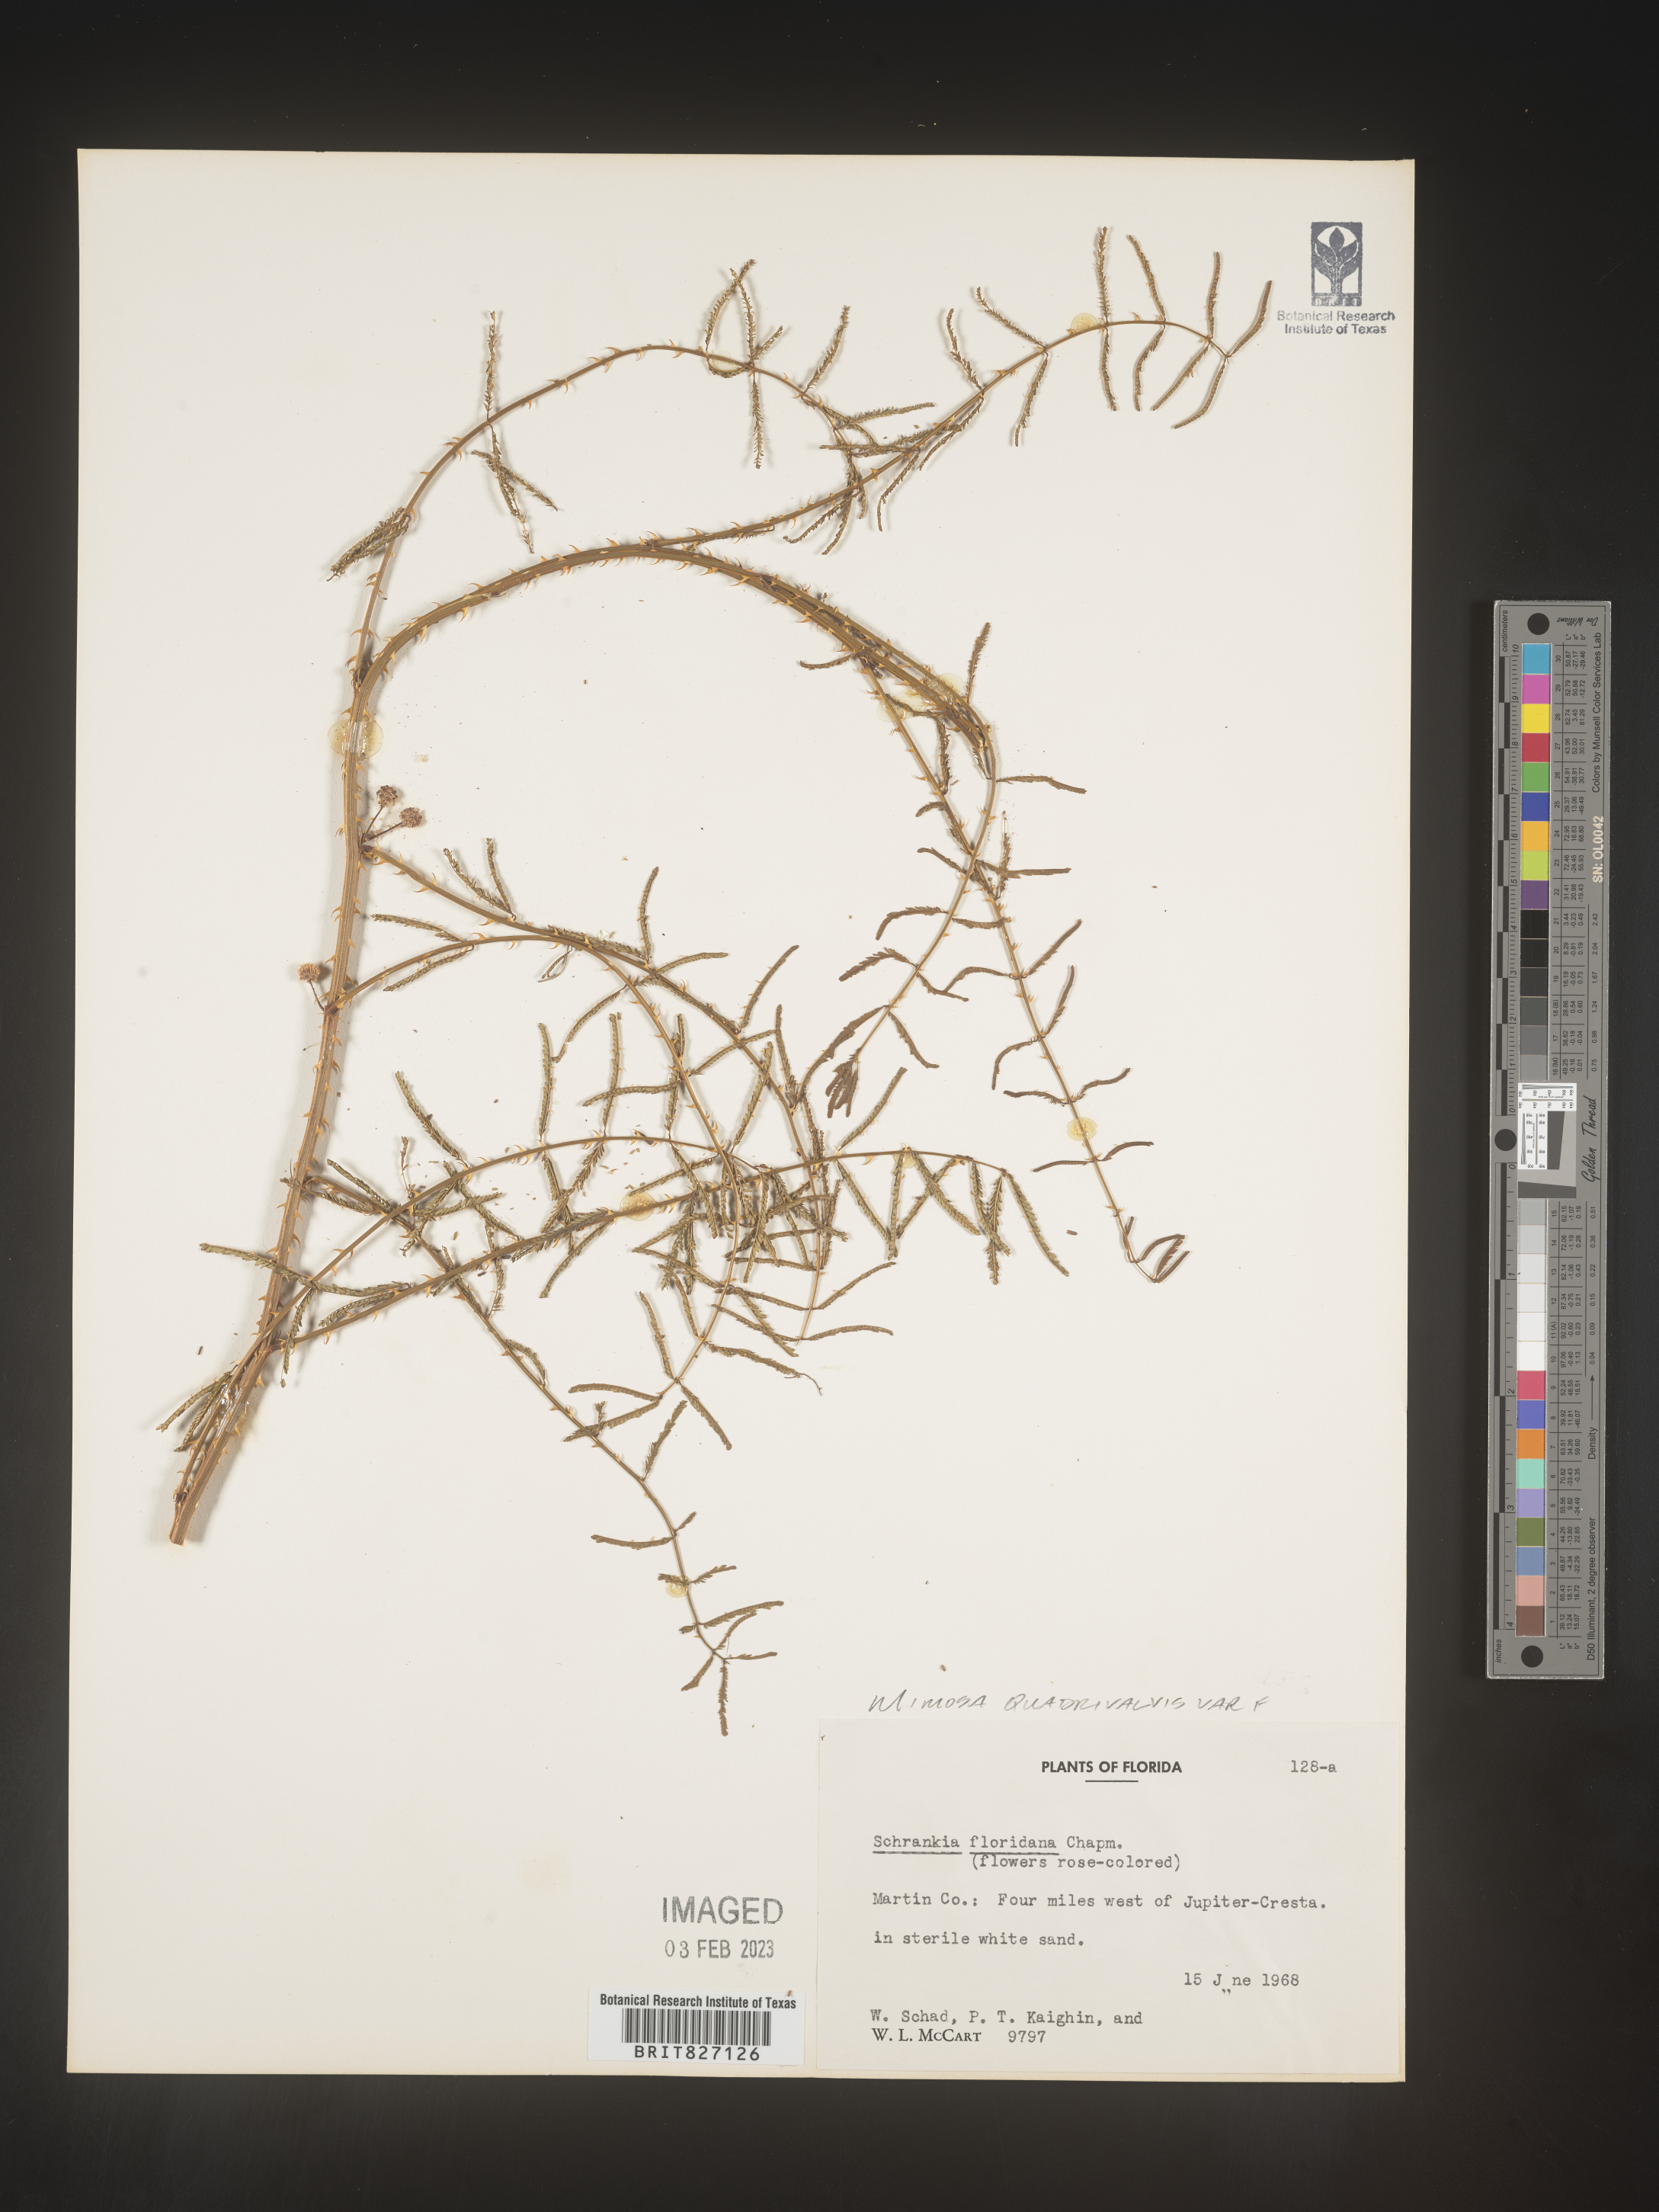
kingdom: Plantae
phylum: Tracheophyta
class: Magnoliopsida
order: Fabales
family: Fabaceae
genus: Mimosa
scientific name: Mimosa quadrivalvis
